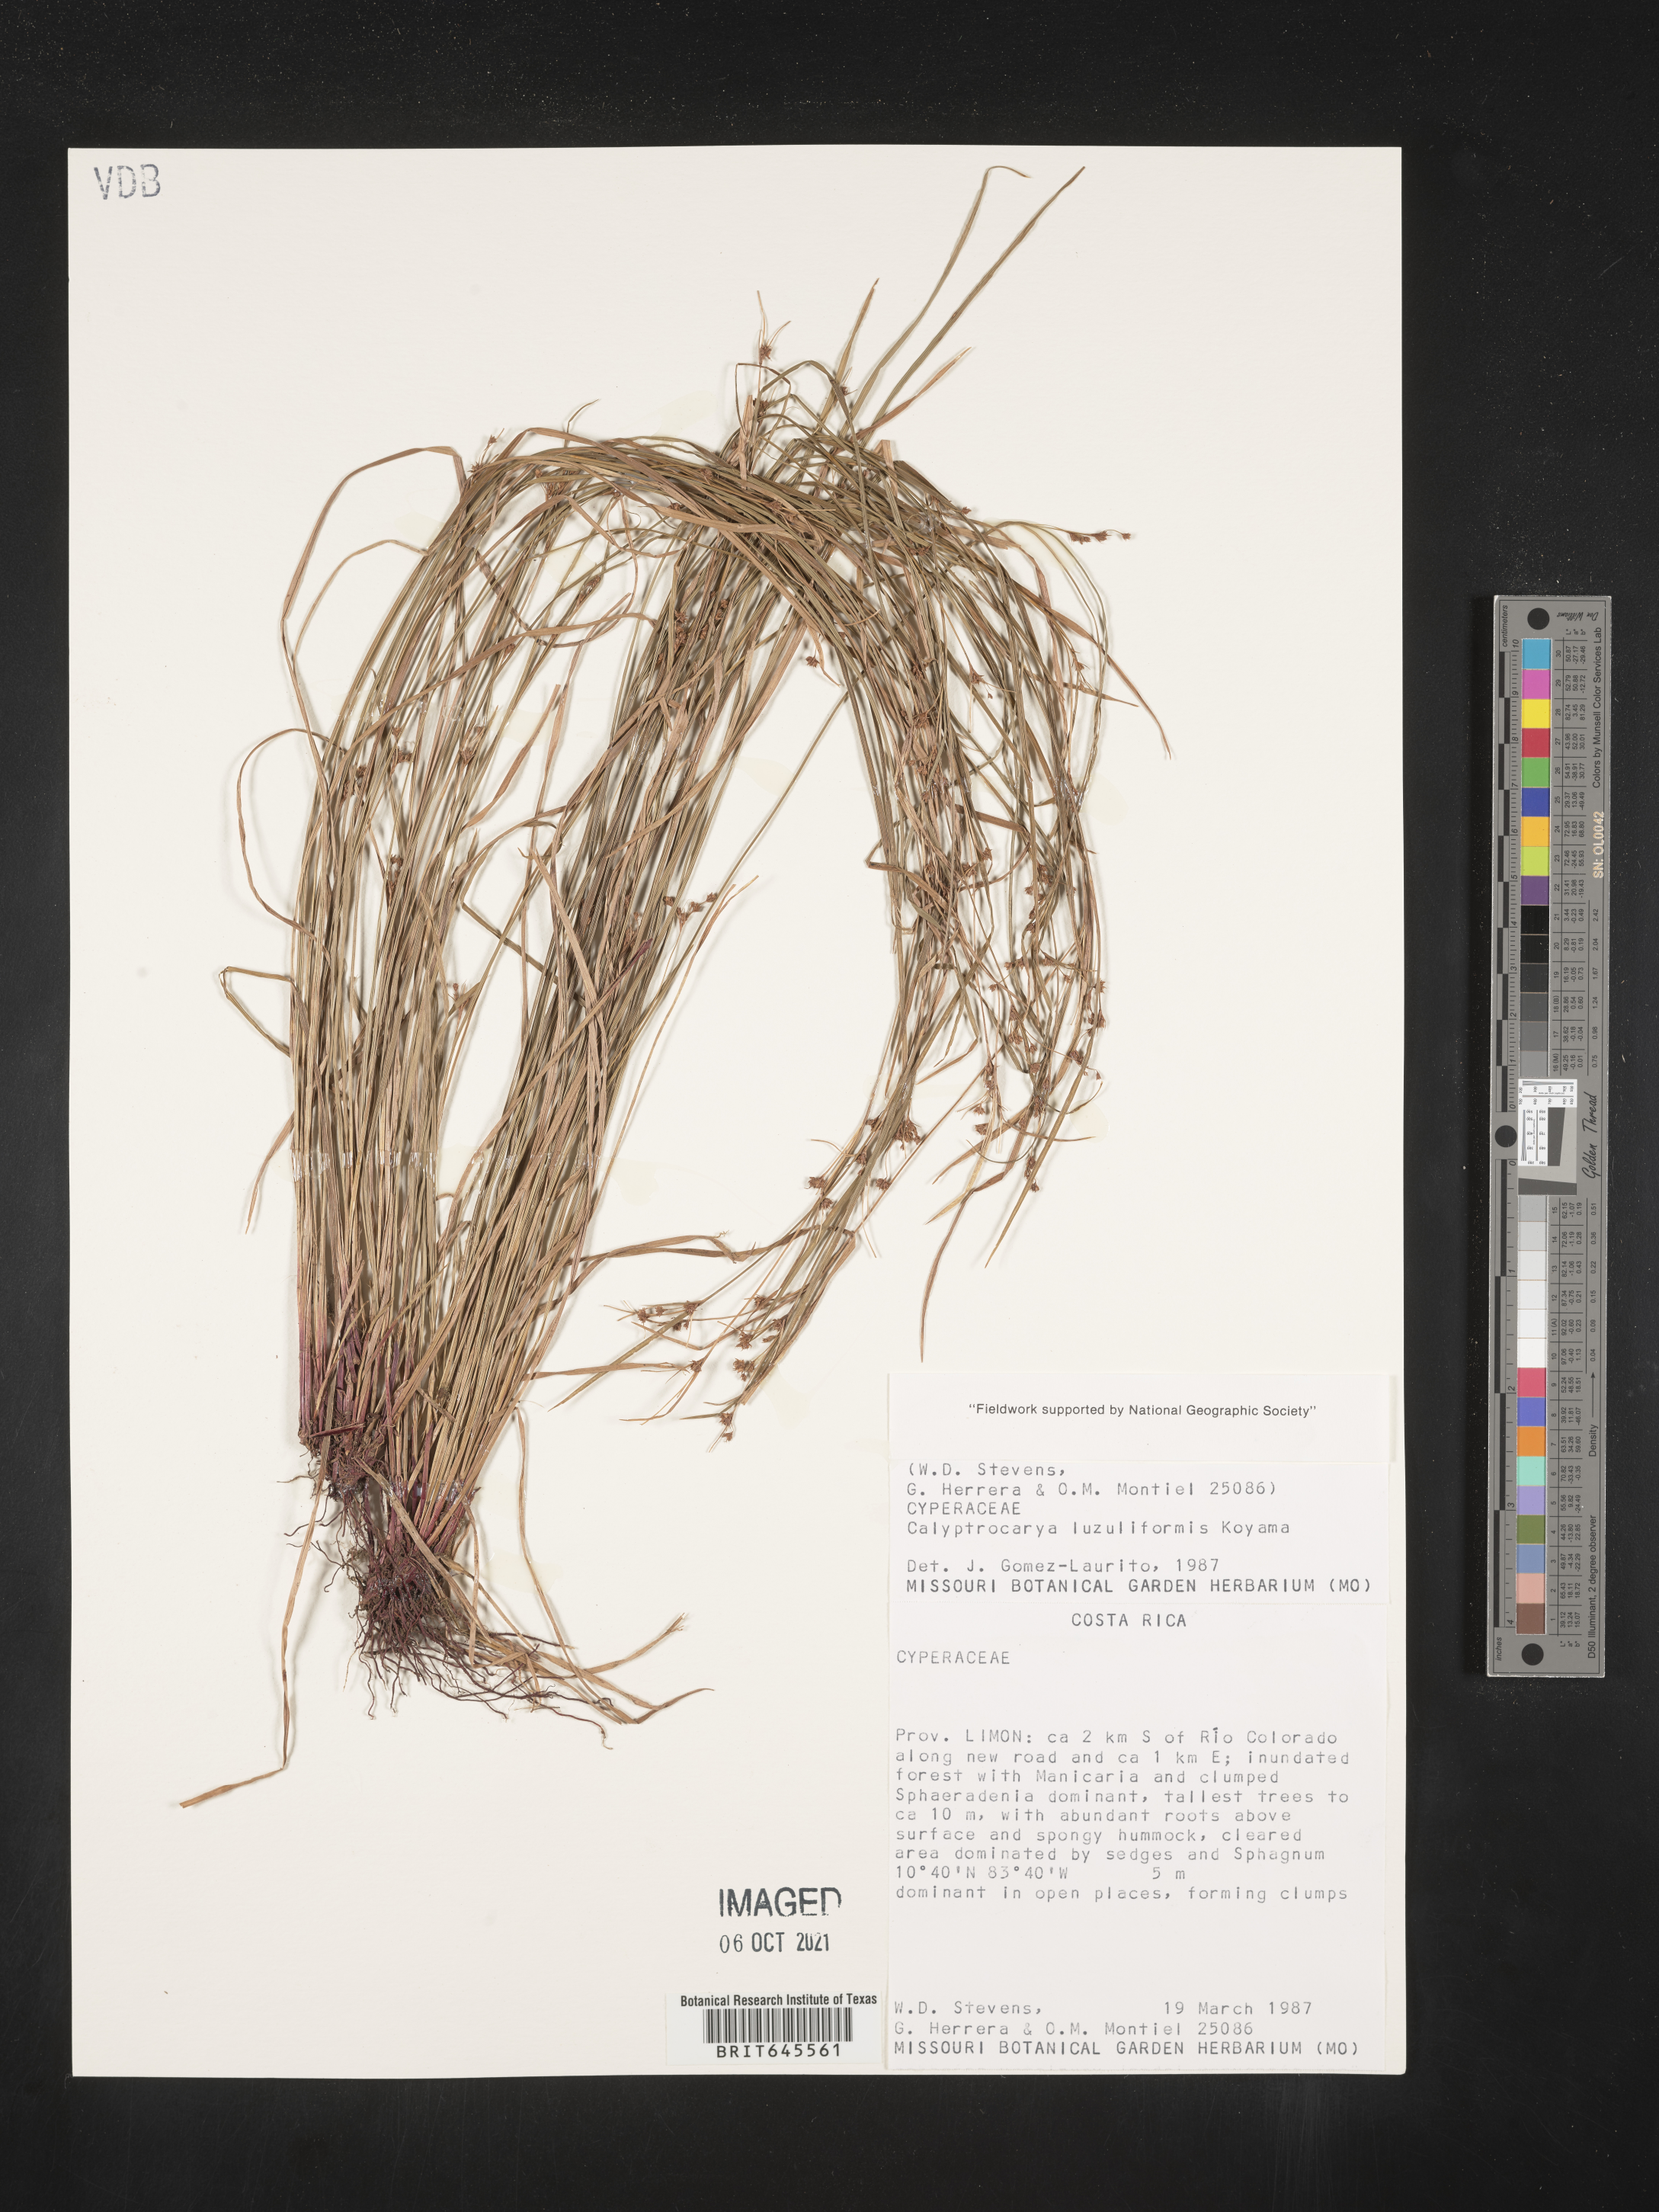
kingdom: Plantae
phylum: Tracheophyta
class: Liliopsida
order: Poales
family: Cyperaceae
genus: Calyptrocarya
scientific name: Calyptrocarya glomerulata
